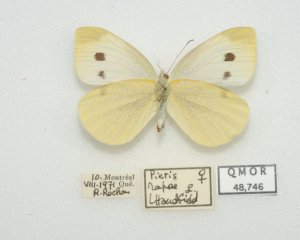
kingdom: Animalia
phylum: Arthropoda
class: Insecta
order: Lepidoptera
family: Pieridae
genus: Pieris
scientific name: Pieris rapae
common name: Cabbage White
